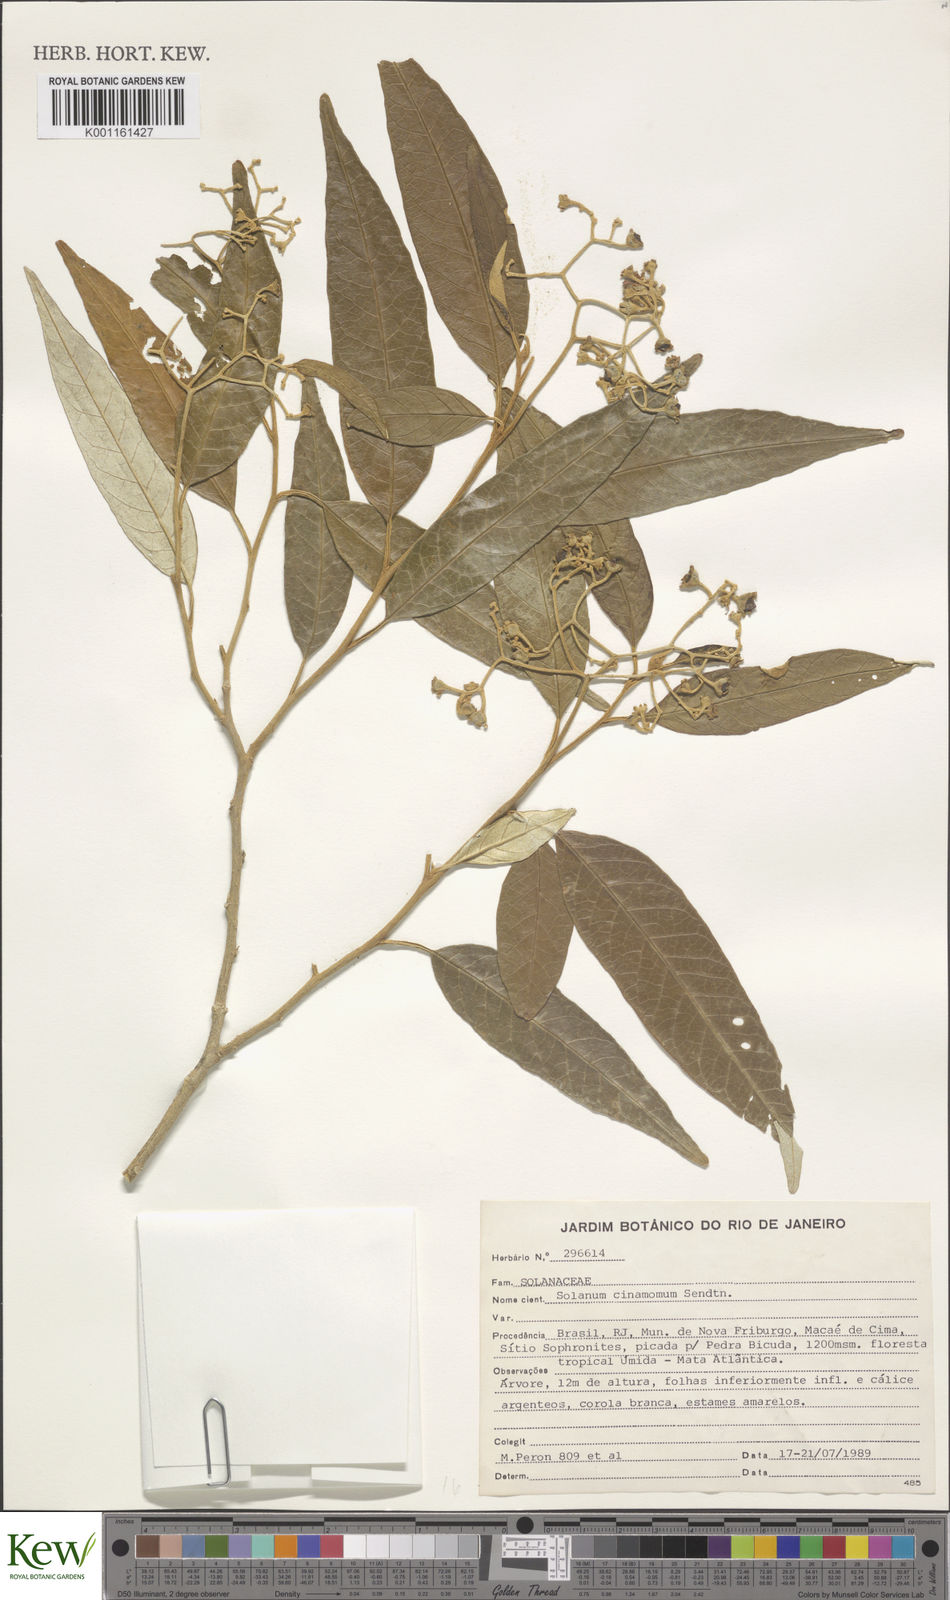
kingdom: Plantae
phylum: Tracheophyta
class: Magnoliopsida
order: Solanales
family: Solanaceae
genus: Solanum
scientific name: Solanum cinnamomeum
